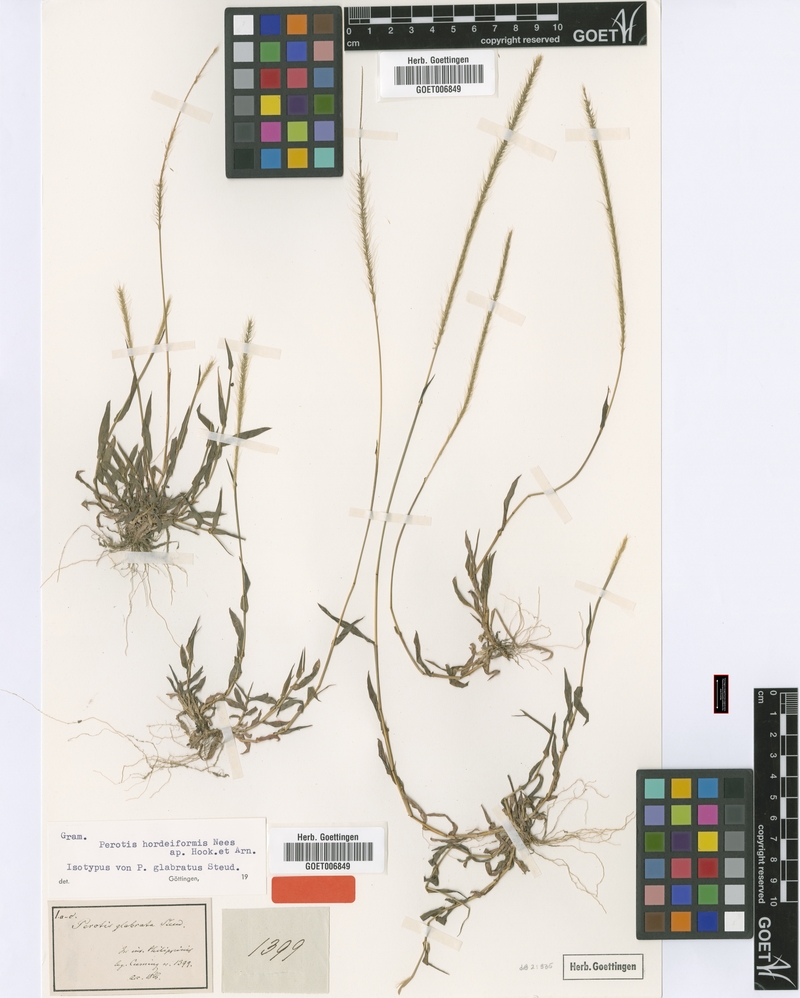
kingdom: Plantae
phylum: Tracheophyta
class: Liliopsida
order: Poales
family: Poaceae
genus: Perotis
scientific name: Perotis hordeiformis
